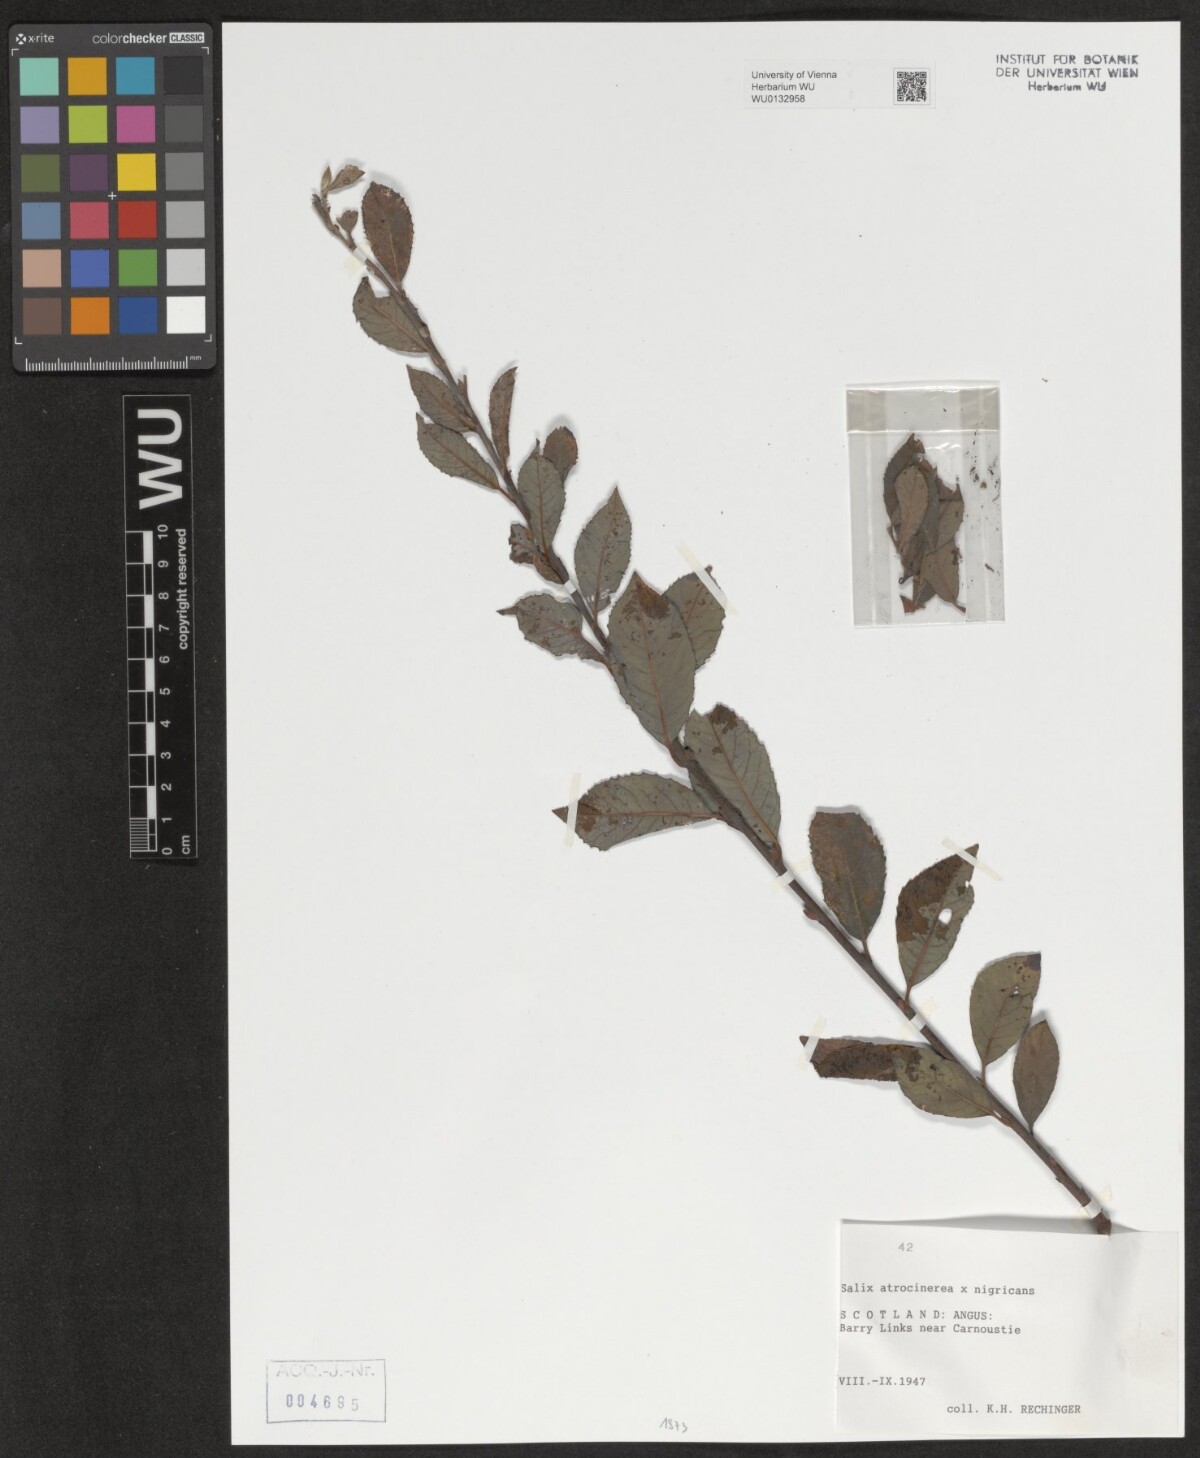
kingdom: Plantae
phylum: Tracheophyta
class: Magnoliopsida
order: Malpighiales
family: Salicaceae
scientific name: Salicaceae
